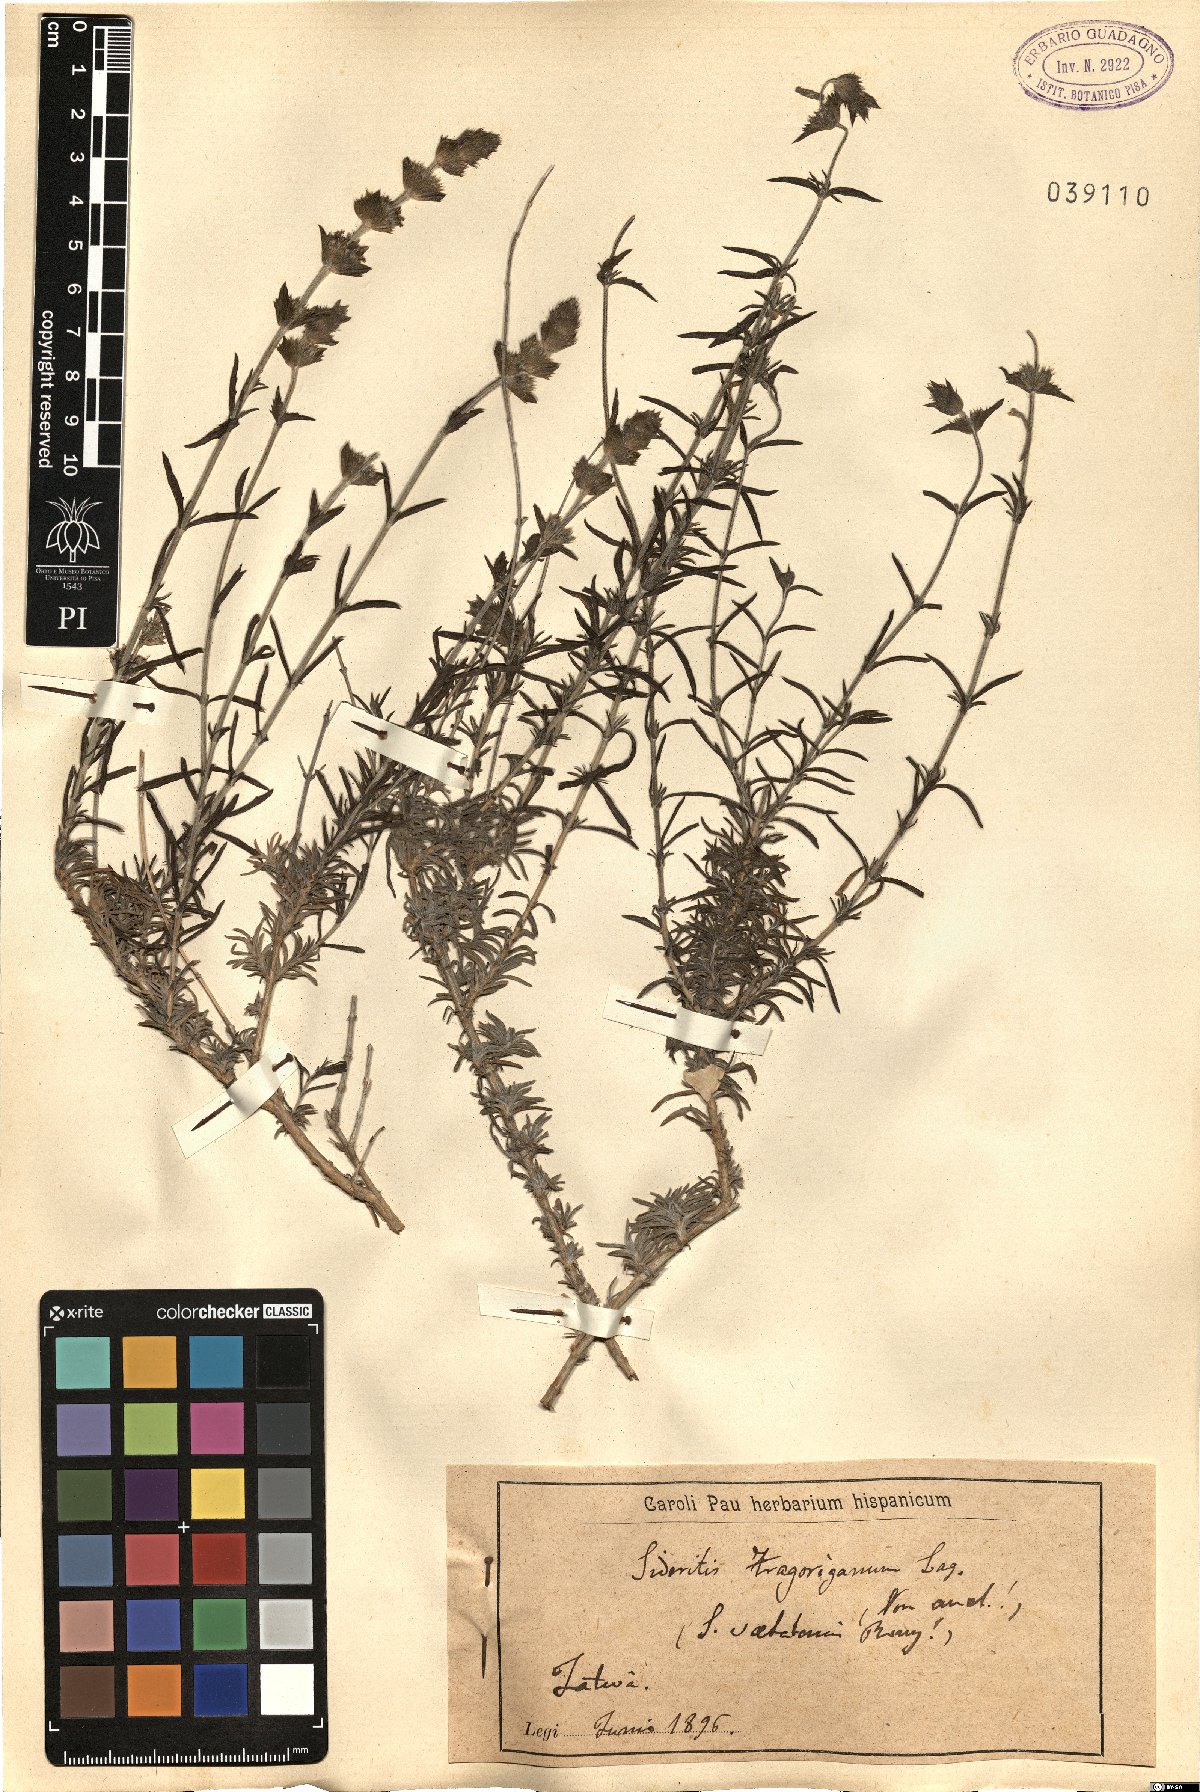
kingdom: Plantae
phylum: Tracheophyta
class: Magnoliopsida
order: Lamiales
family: Lamiaceae
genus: Sideritis
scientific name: Sideritis tragoriganum
